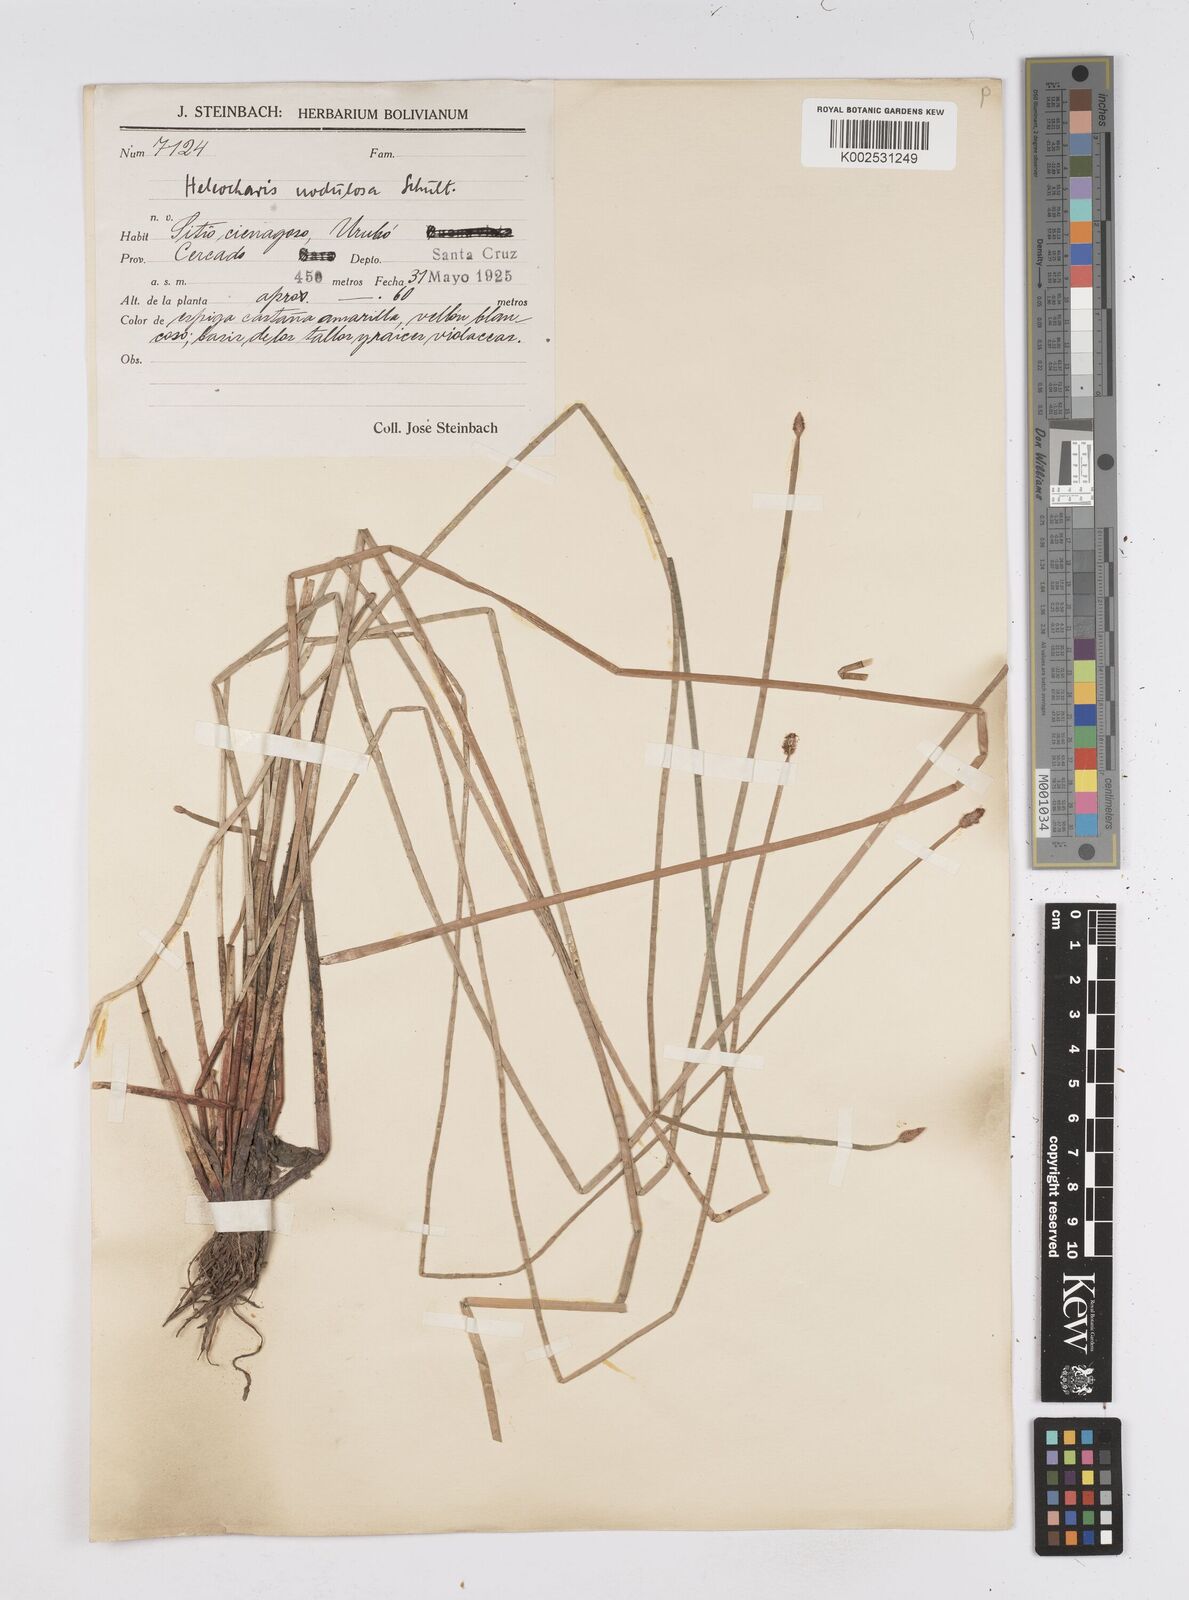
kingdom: Plantae
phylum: Tracheophyta
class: Liliopsida
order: Poales
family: Cyperaceae
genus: Eleocharis
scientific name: Eleocharis montana
